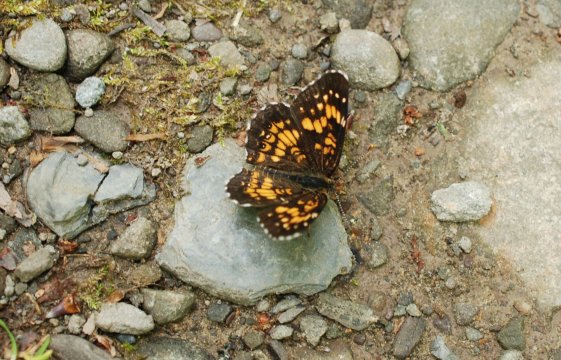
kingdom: Animalia
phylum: Arthropoda
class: Insecta
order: Lepidoptera
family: Nymphalidae
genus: Chlosyne
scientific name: Chlosyne harrisii
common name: Harris's Checkerspot
